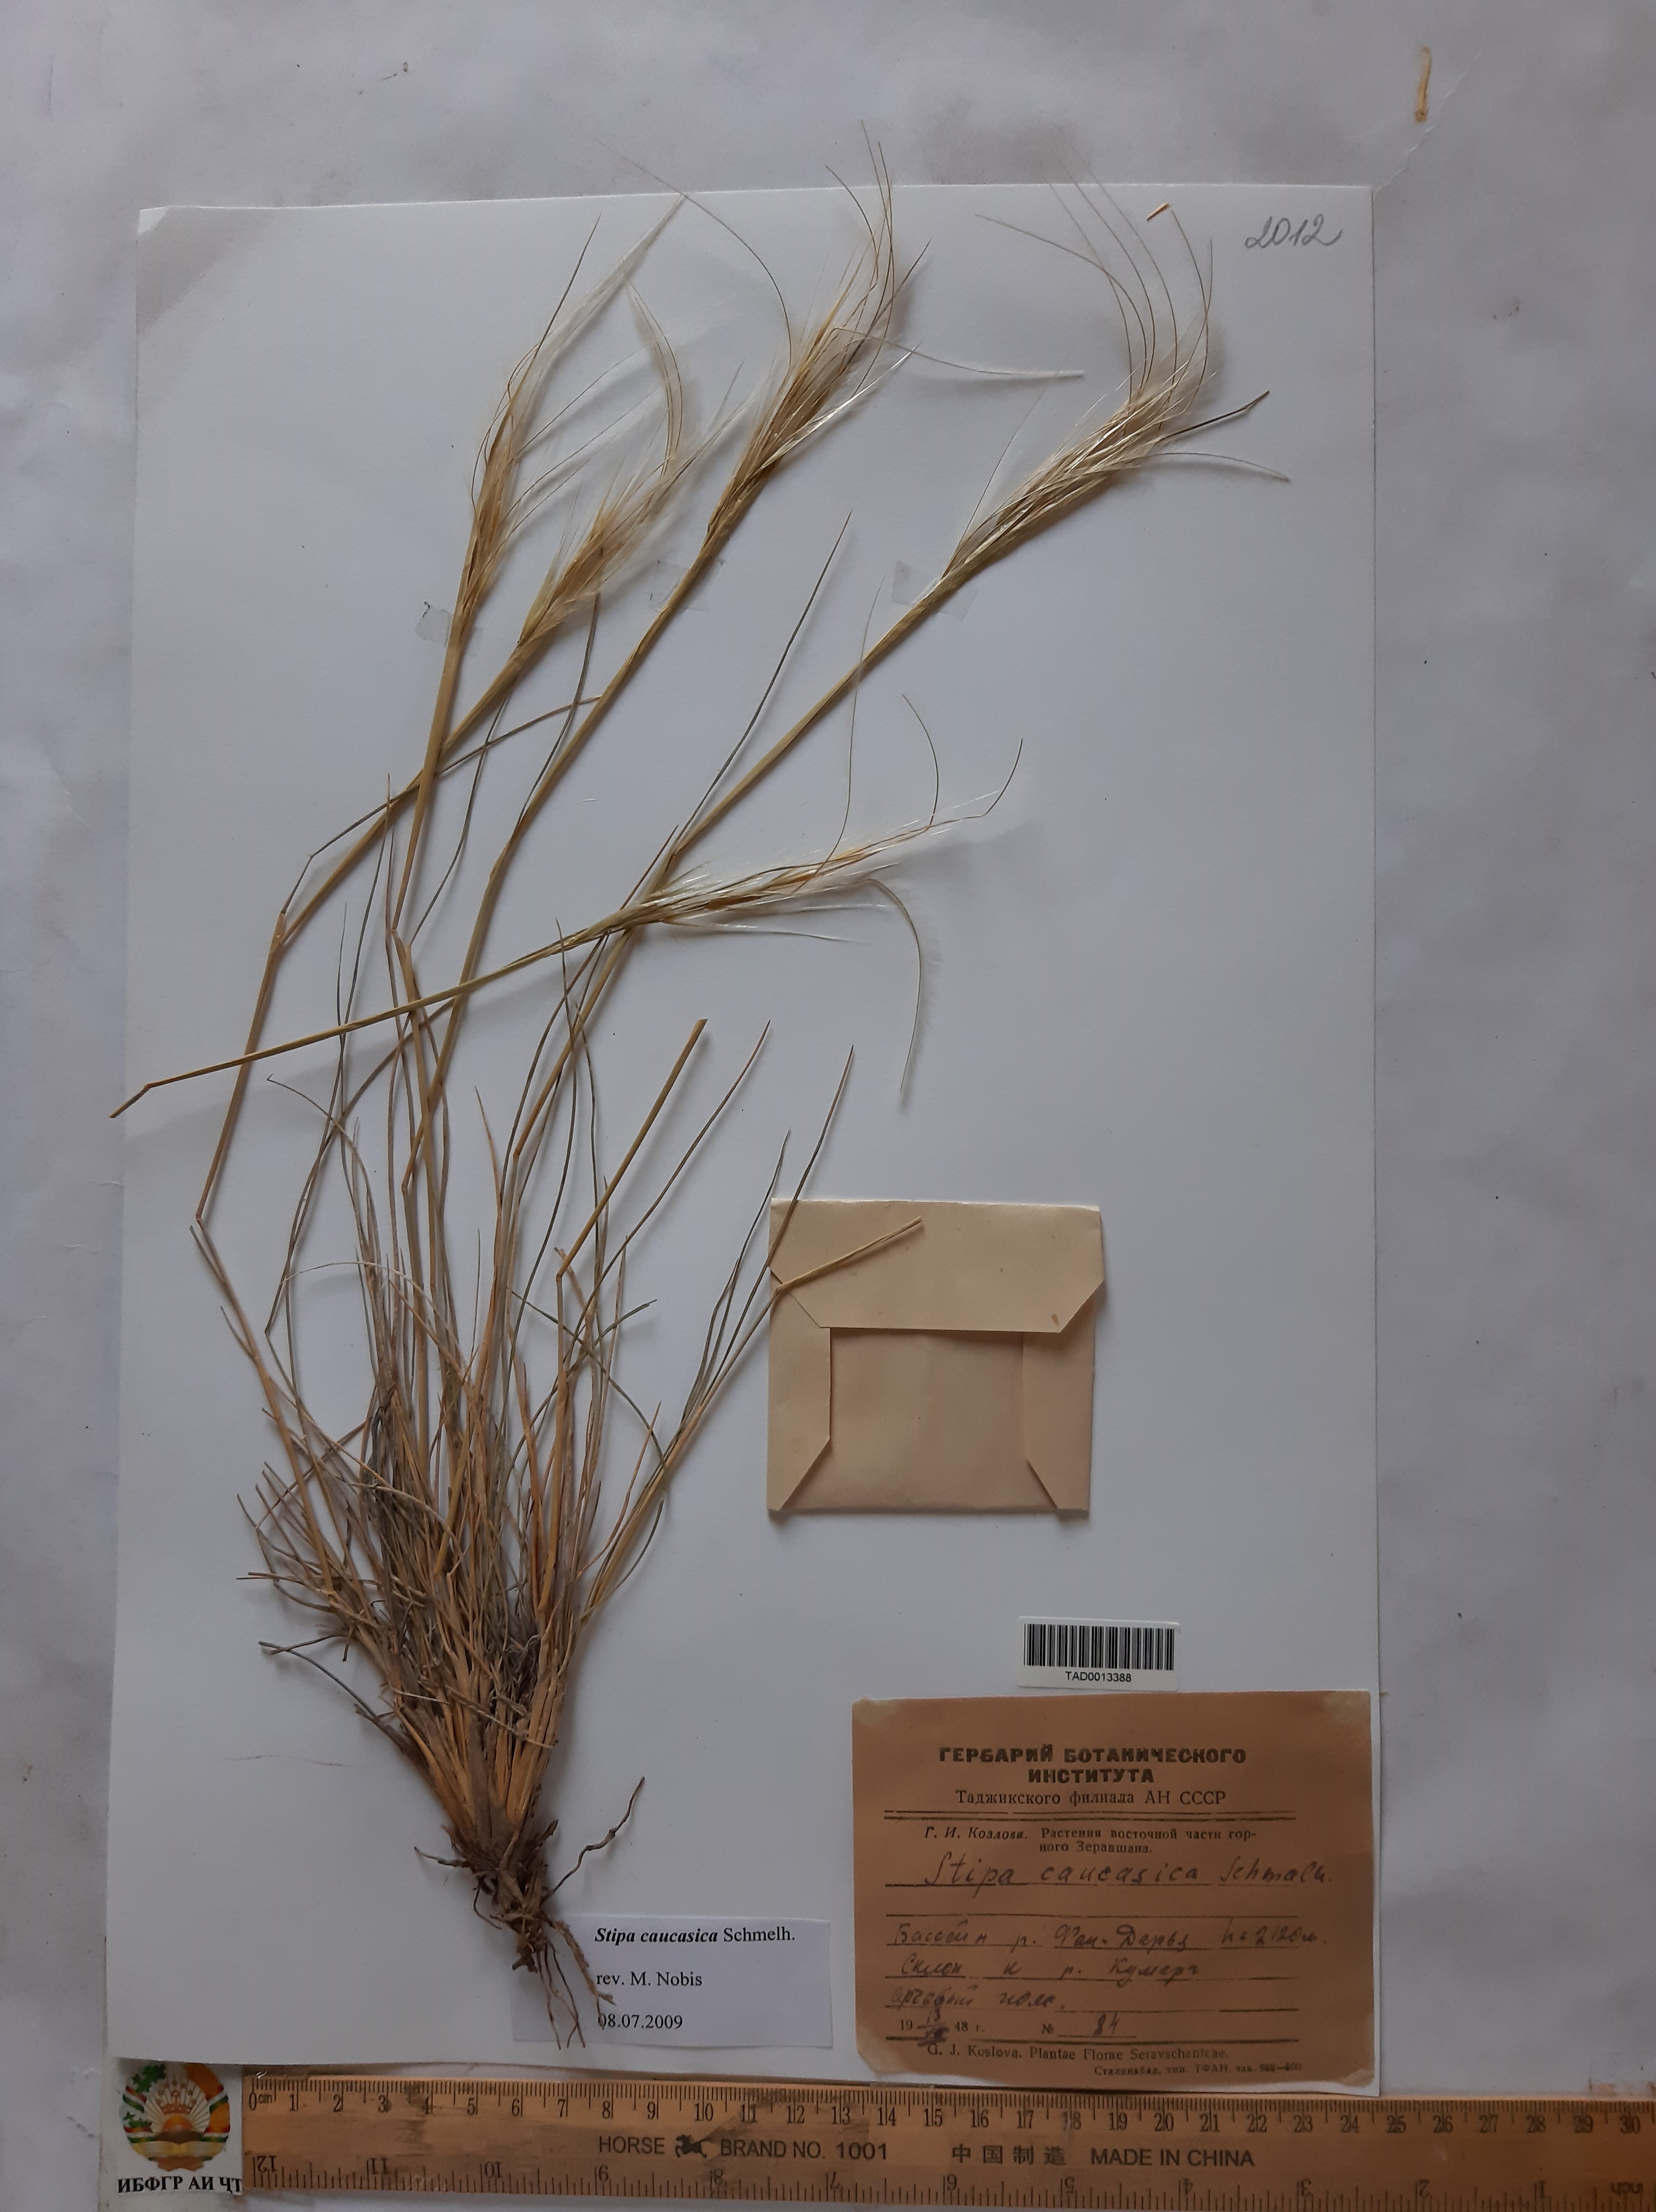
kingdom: Plantae
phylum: Tracheophyta
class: Liliopsida
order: Poales
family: Poaceae
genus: Stipa
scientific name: Stipa caucasica
